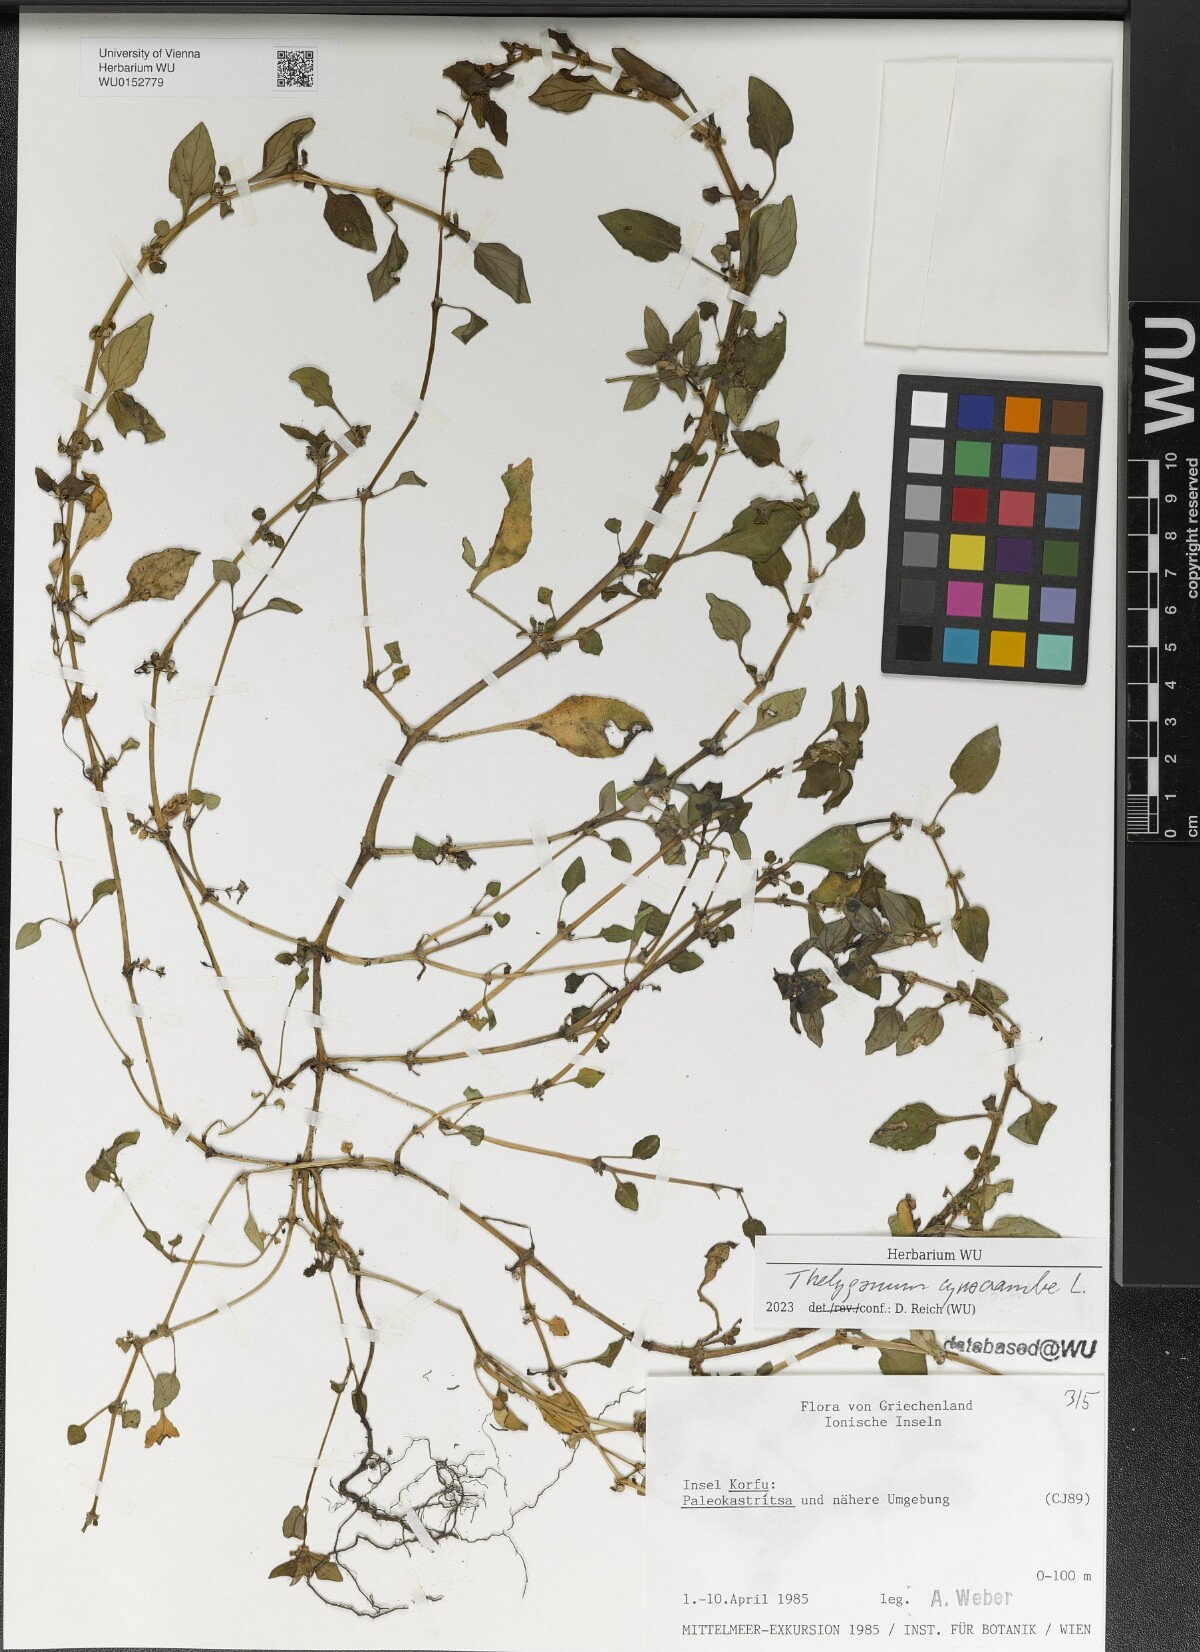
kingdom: Plantae
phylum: Tracheophyta
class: Magnoliopsida
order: Gentianales
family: Rubiaceae
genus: Theligonum
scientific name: Theligonum cynocrambe
